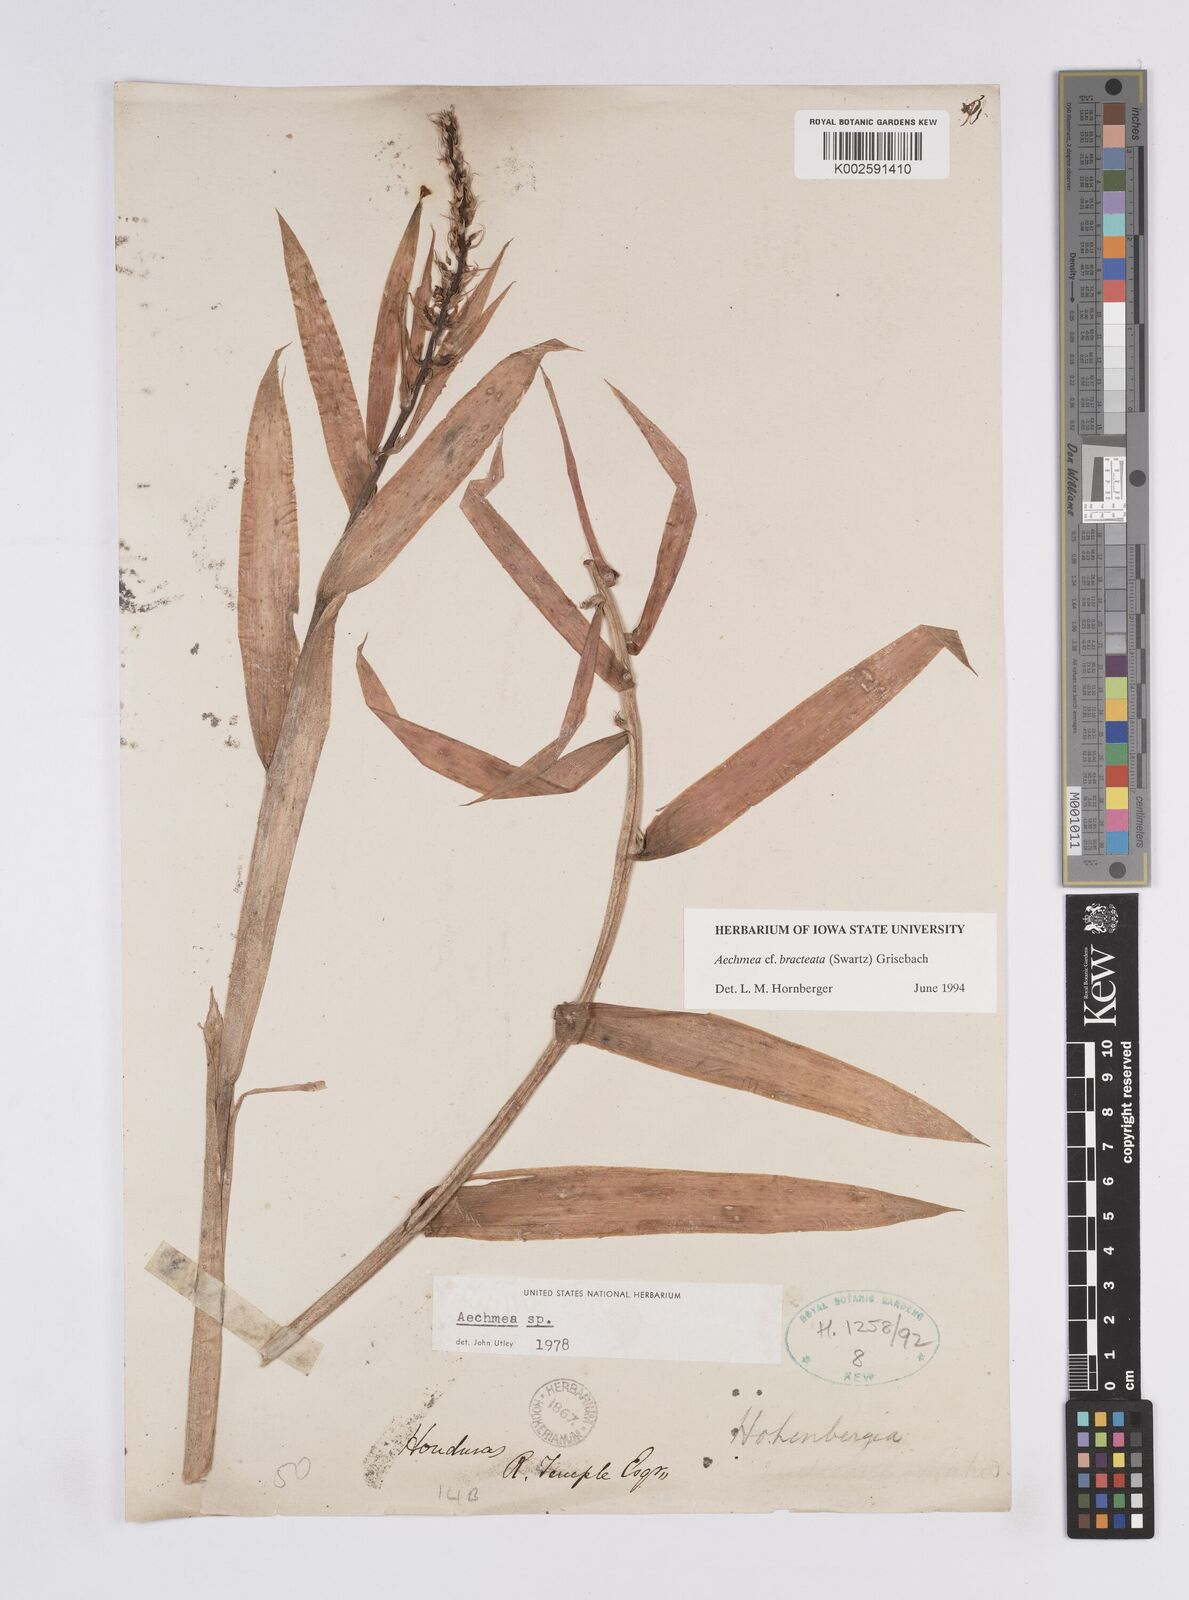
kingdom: Plantae
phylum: Tracheophyta
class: Liliopsida
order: Poales
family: Bromeliaceae
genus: Aechmea
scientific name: Aechmea
